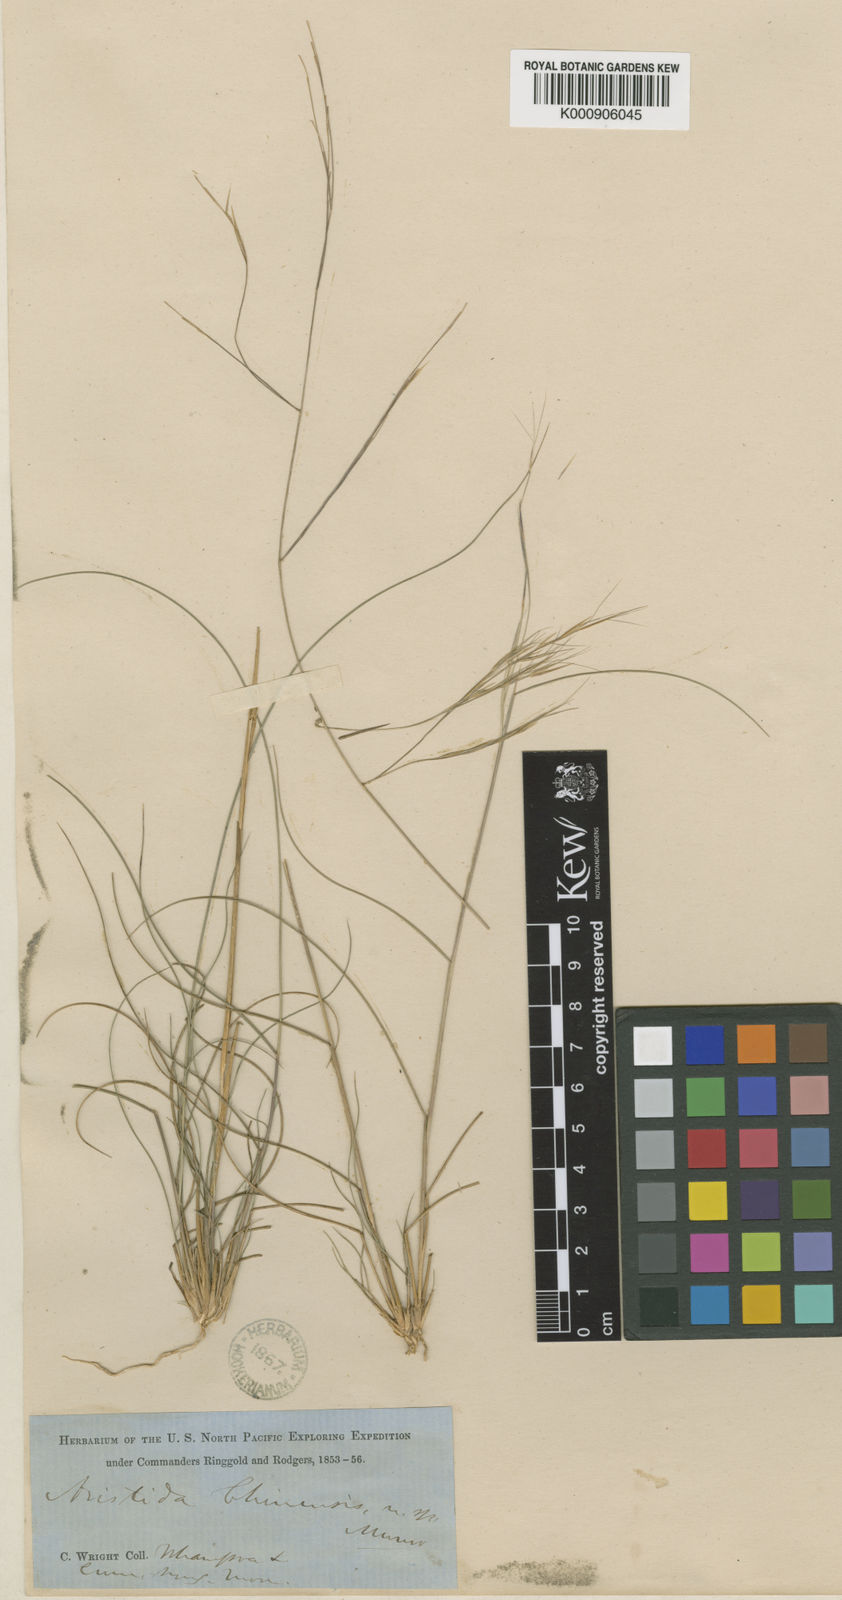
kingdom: Plantae
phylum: Tracheophyta
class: Liliopsida
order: Poales
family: Poaceae
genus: Aristida
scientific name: Aristida chinensis
